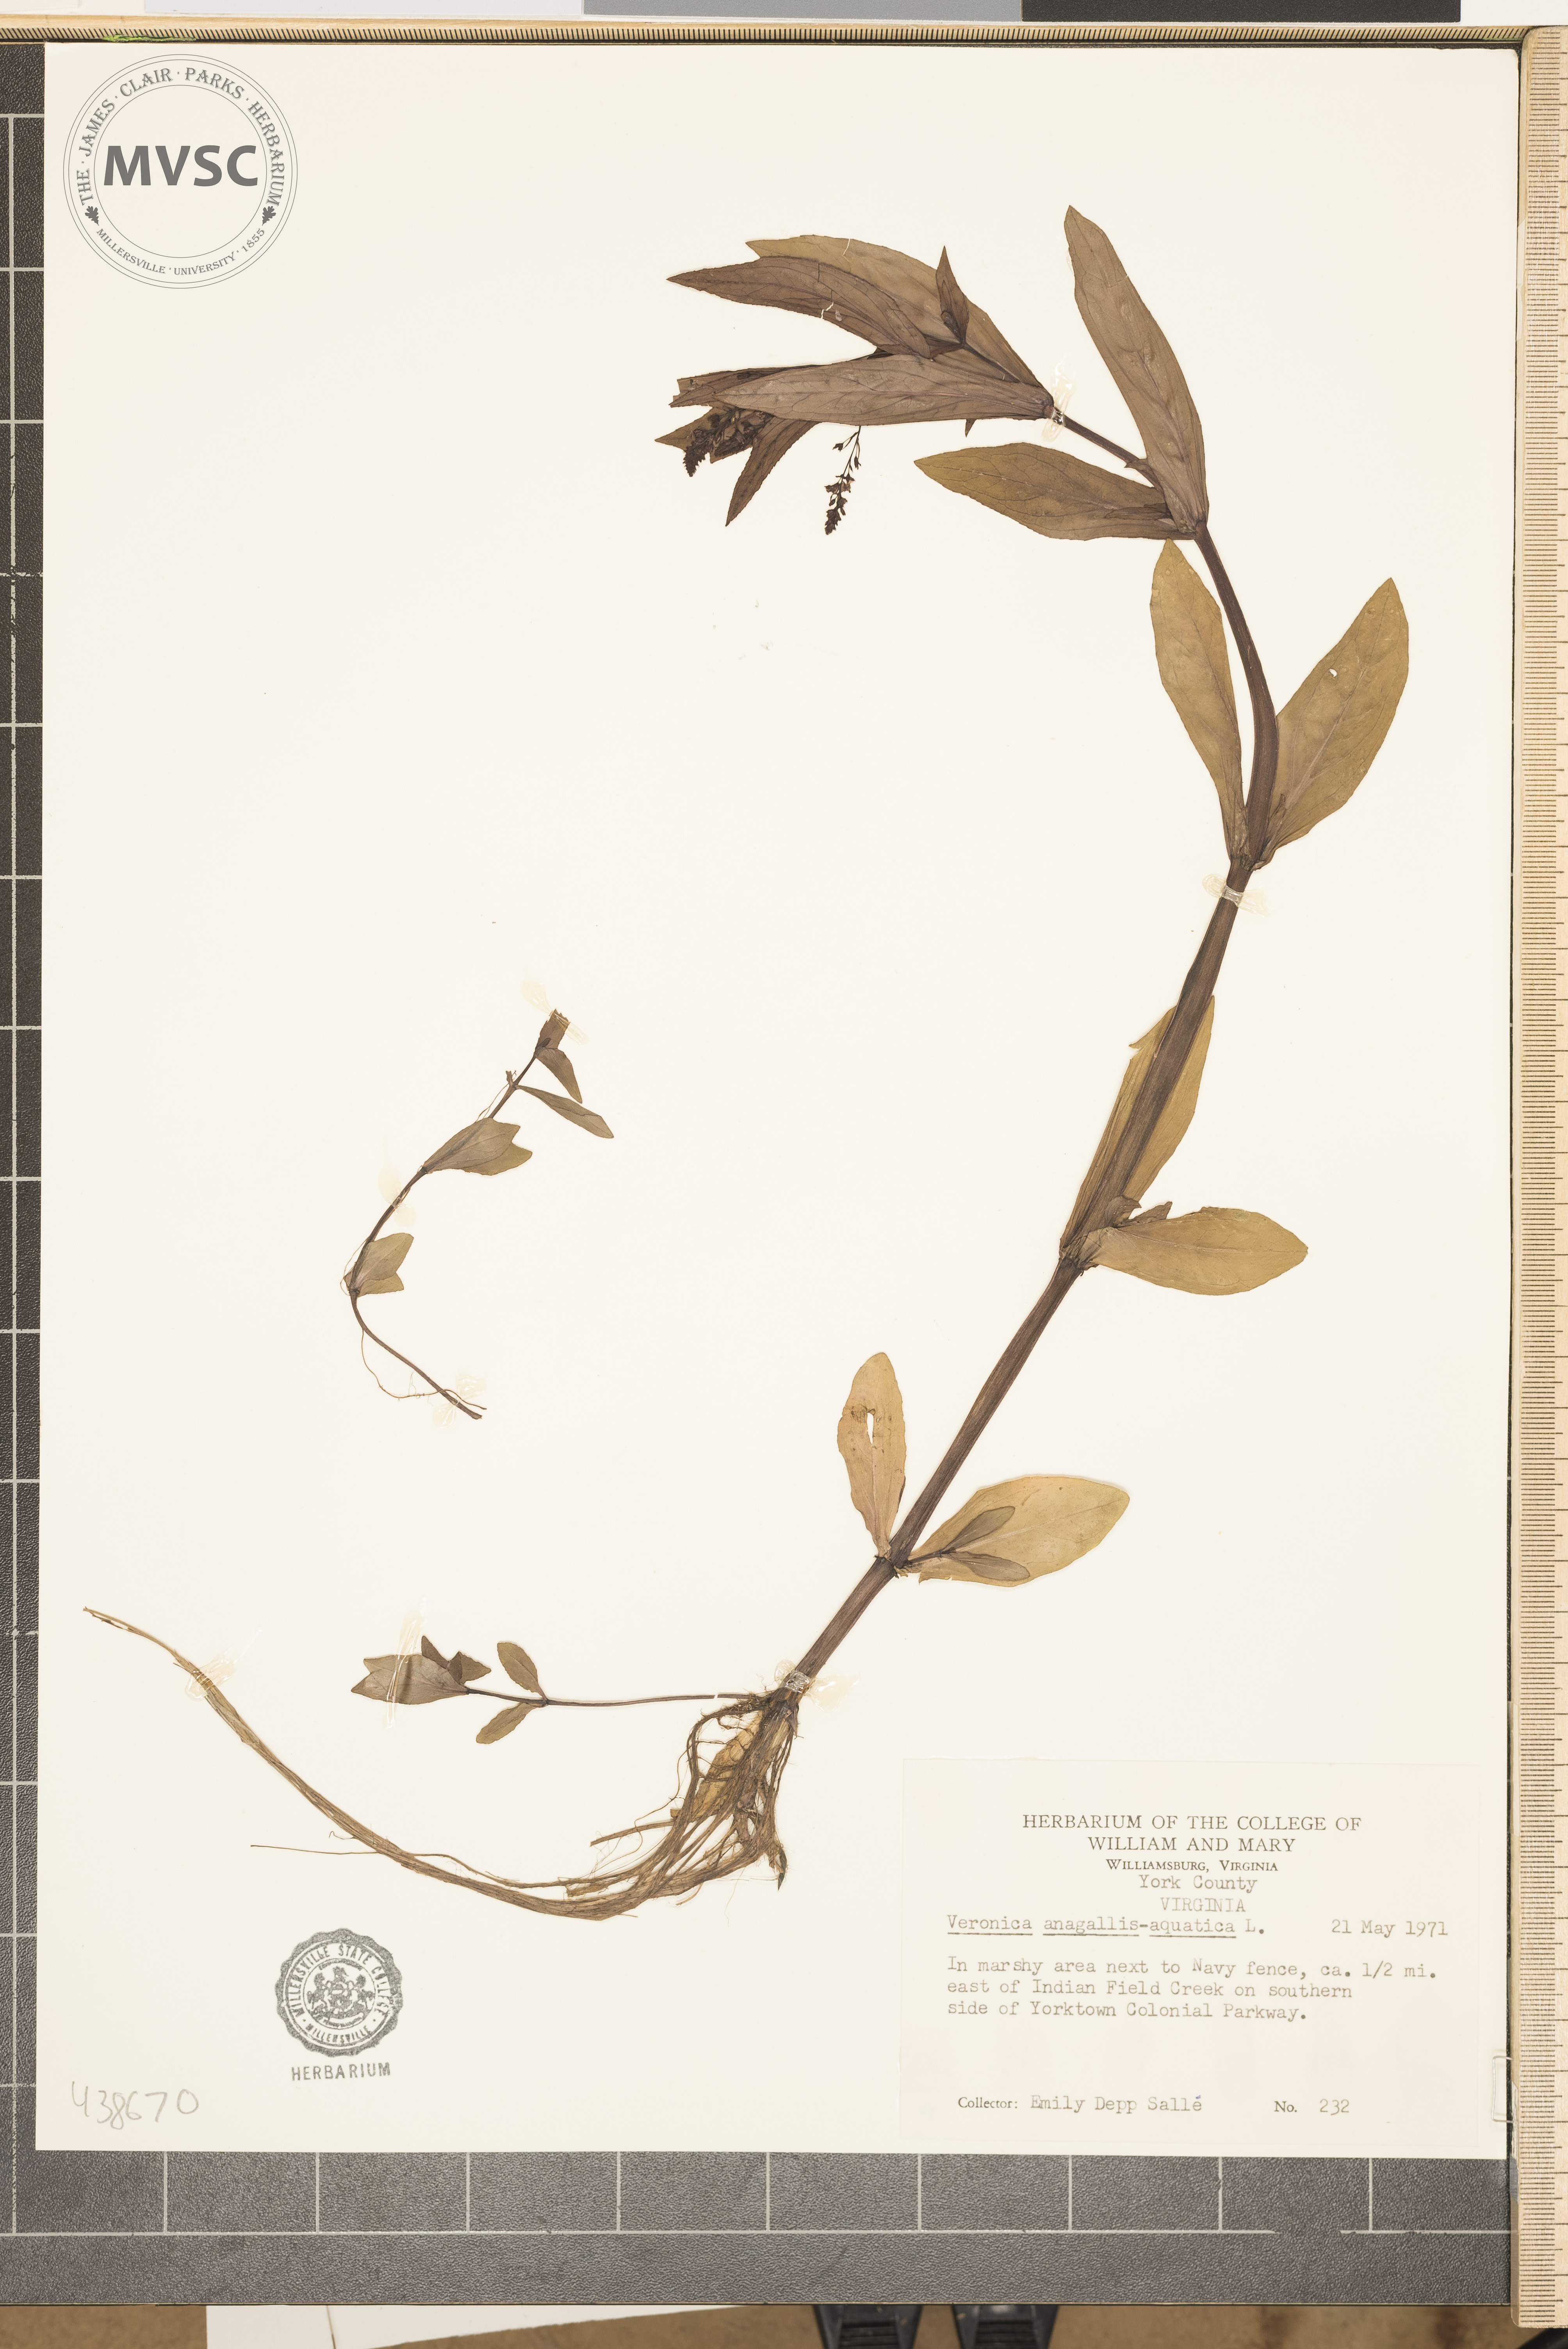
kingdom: Plantae
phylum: Tracheophyta
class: Magnoliopsida
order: Lamiales
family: Plantaginaceae
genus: Veronica
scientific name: Veronica anagallis-aquatica
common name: Water speedwell
